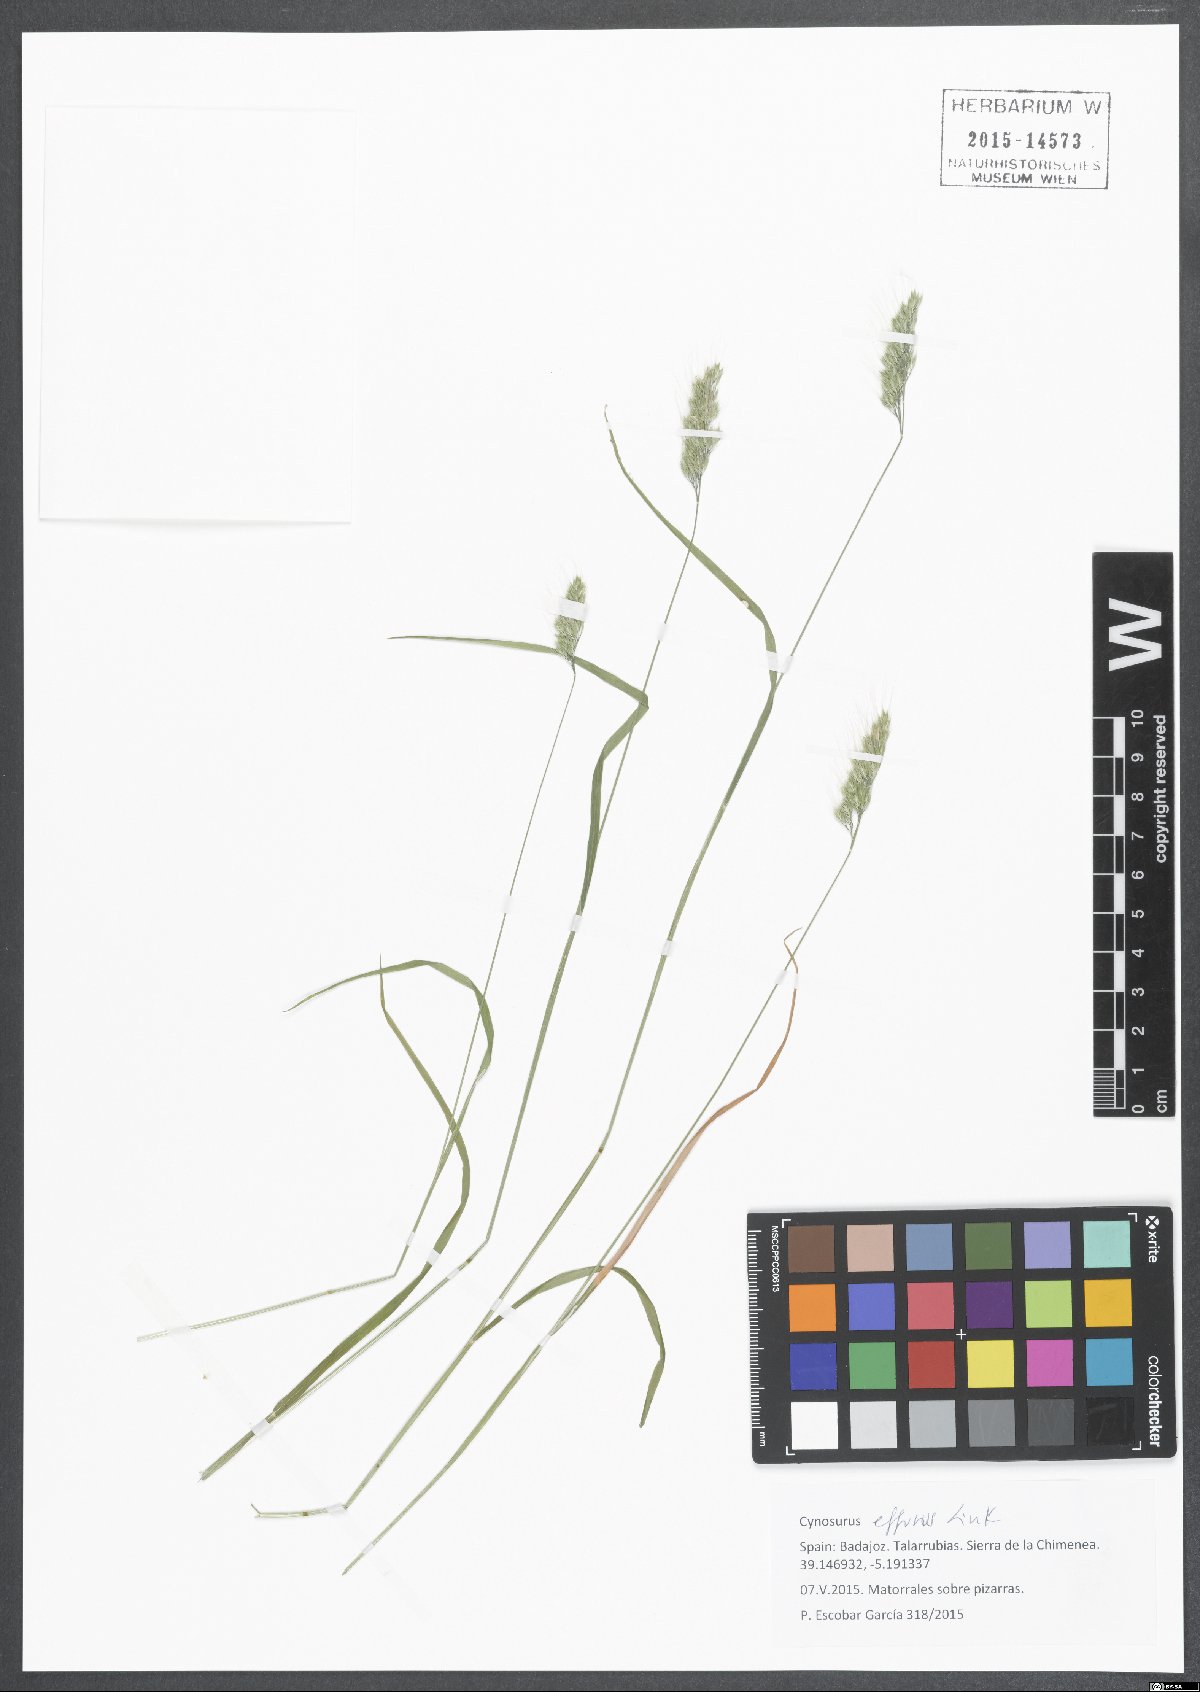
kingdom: Plantae
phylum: Tracheophyta
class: Liliopsida
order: Poales
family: Poaceae
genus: Cynosurus
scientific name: Cynosurus effusus
